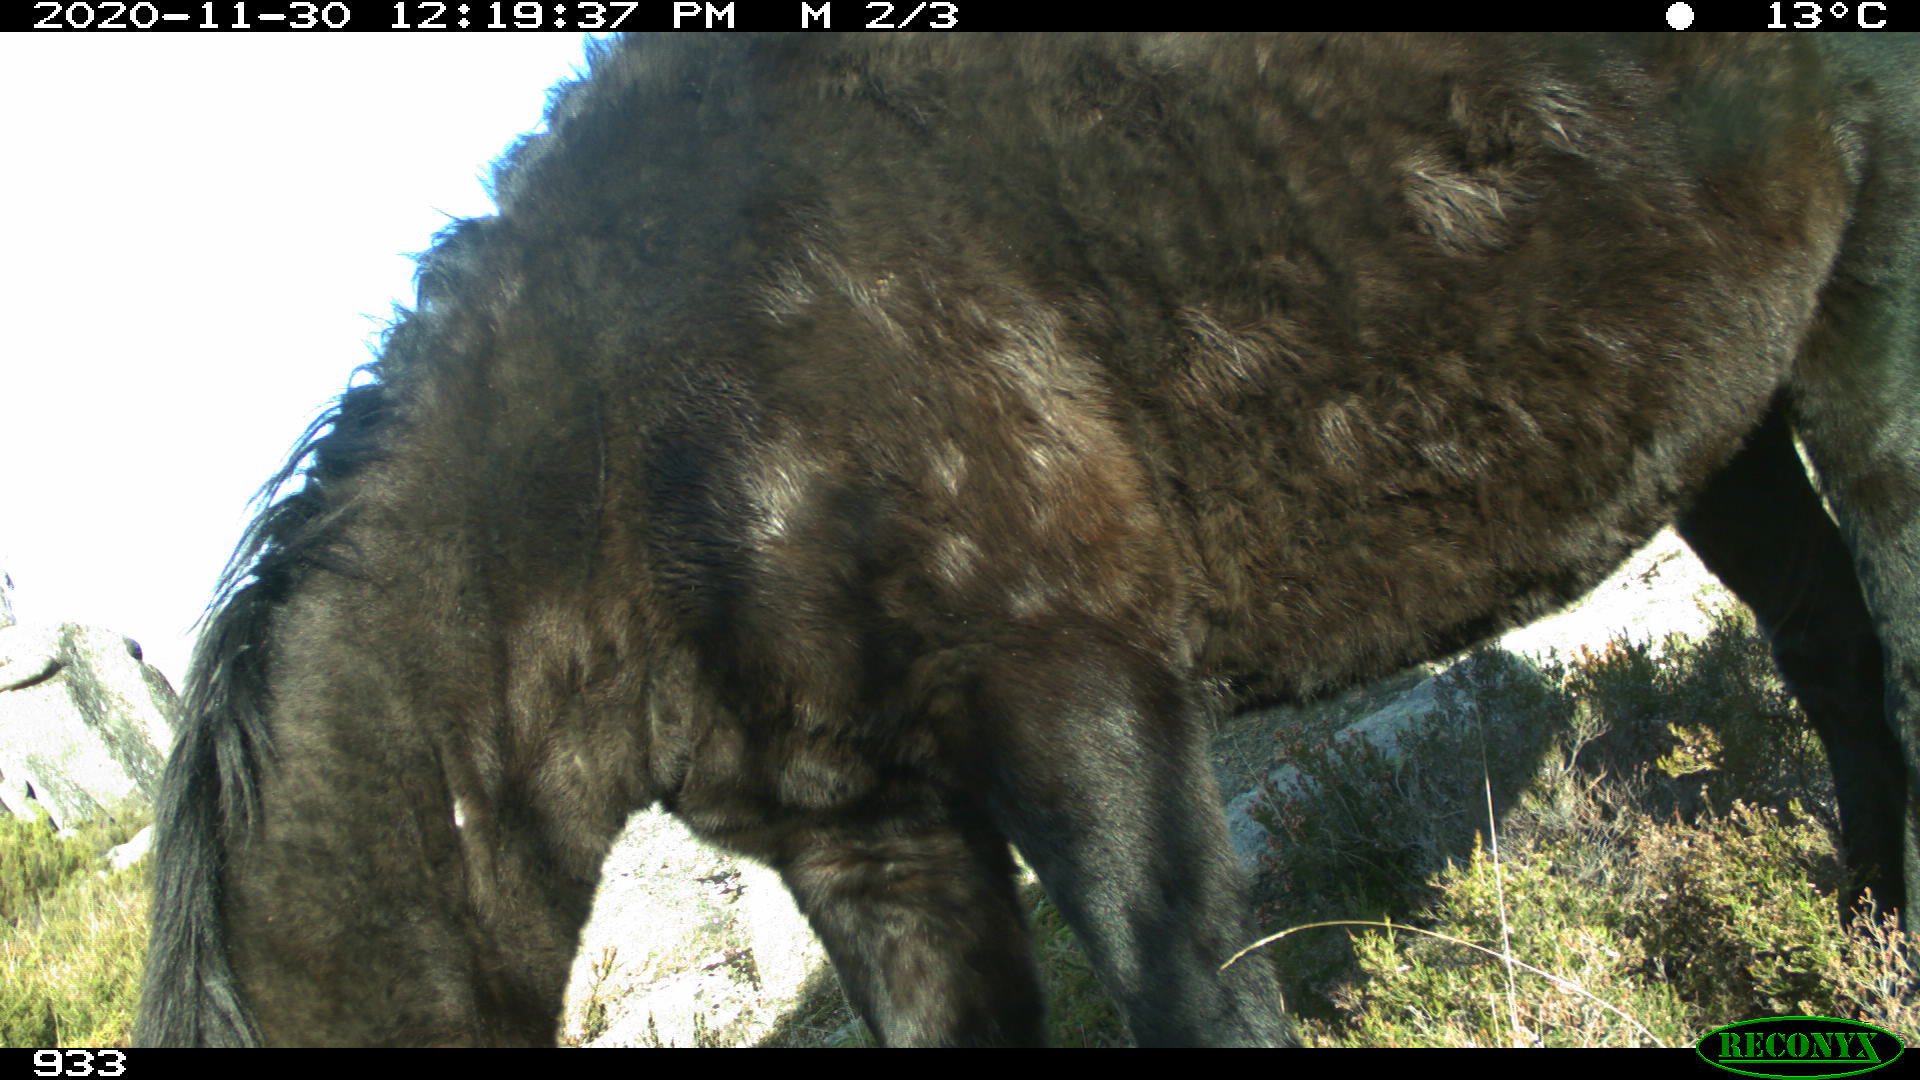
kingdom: Animalia
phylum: Chordata
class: Mammalia
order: Perissodactyla
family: Equidae
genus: Equus
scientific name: Equus caballus
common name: Horse
